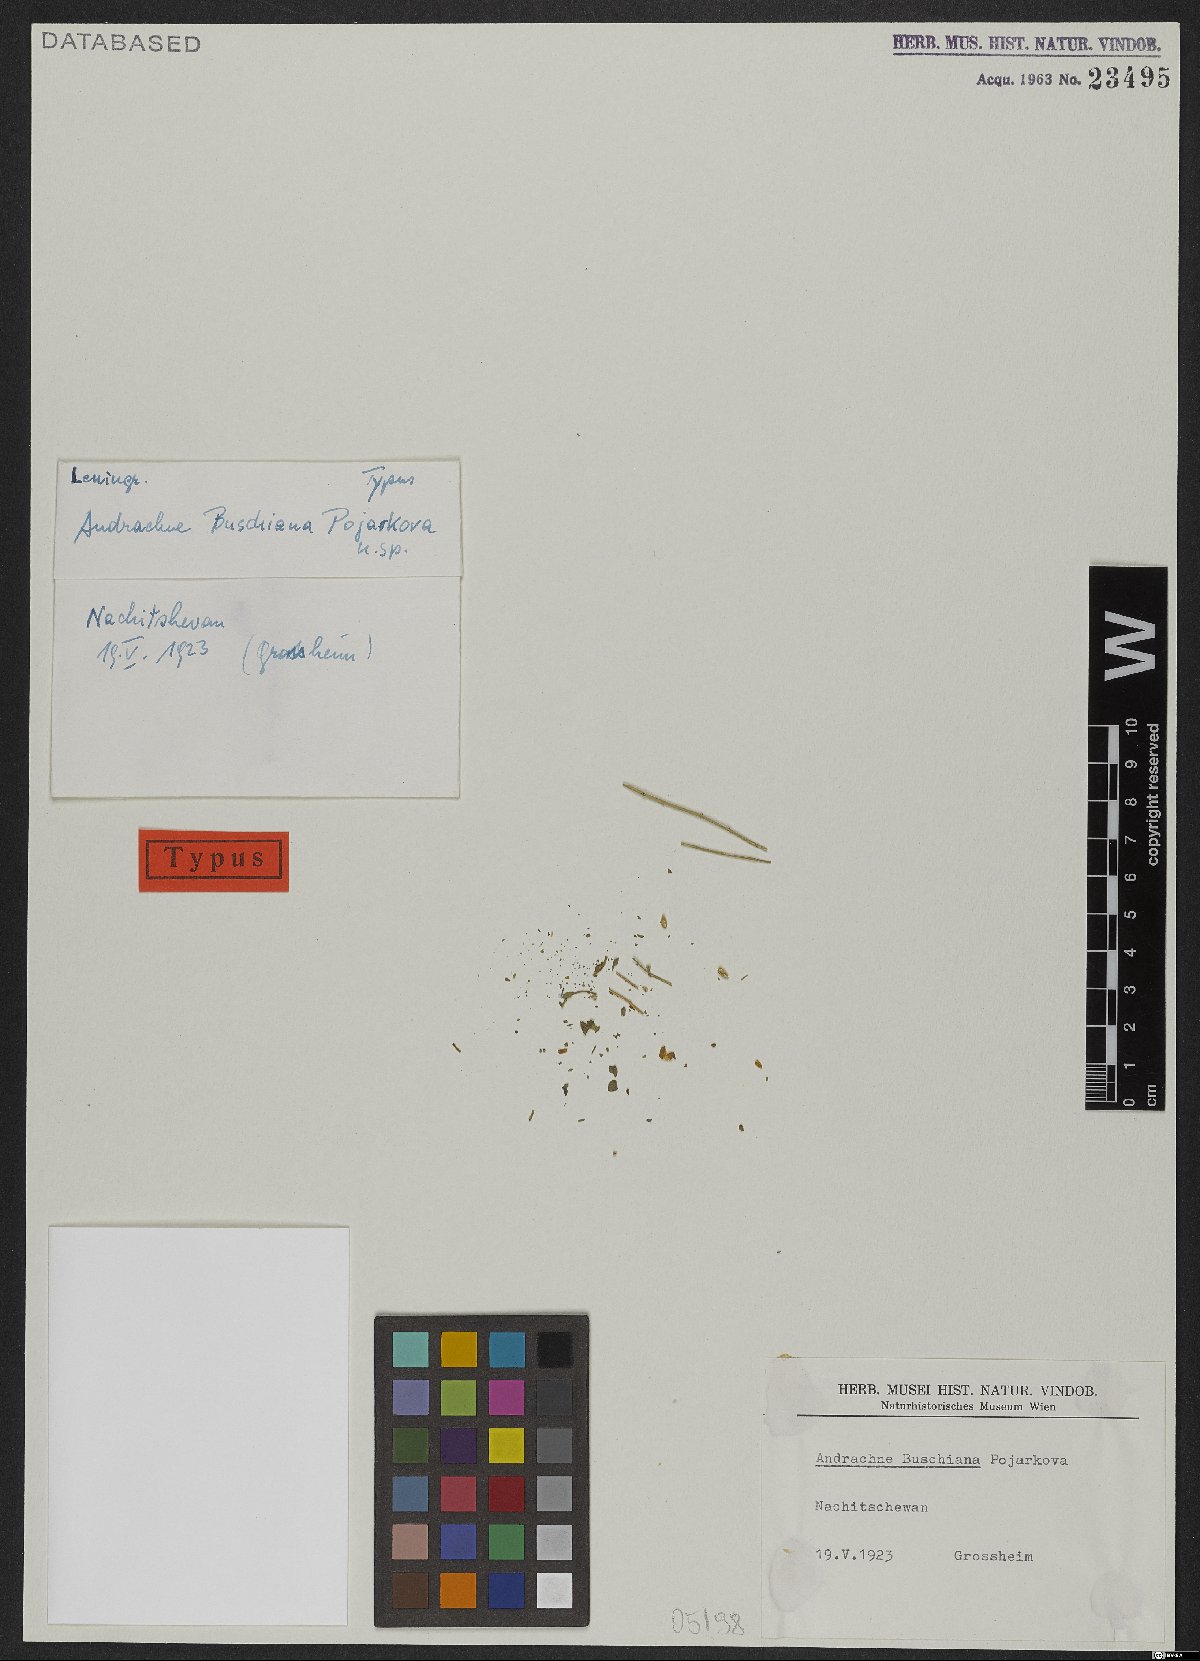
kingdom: Plantae
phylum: Tracheophyta
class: Magnoliopsida
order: Malpighiales
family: Phyllanthaceae
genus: Andrachne
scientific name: Andrachne buschiana
